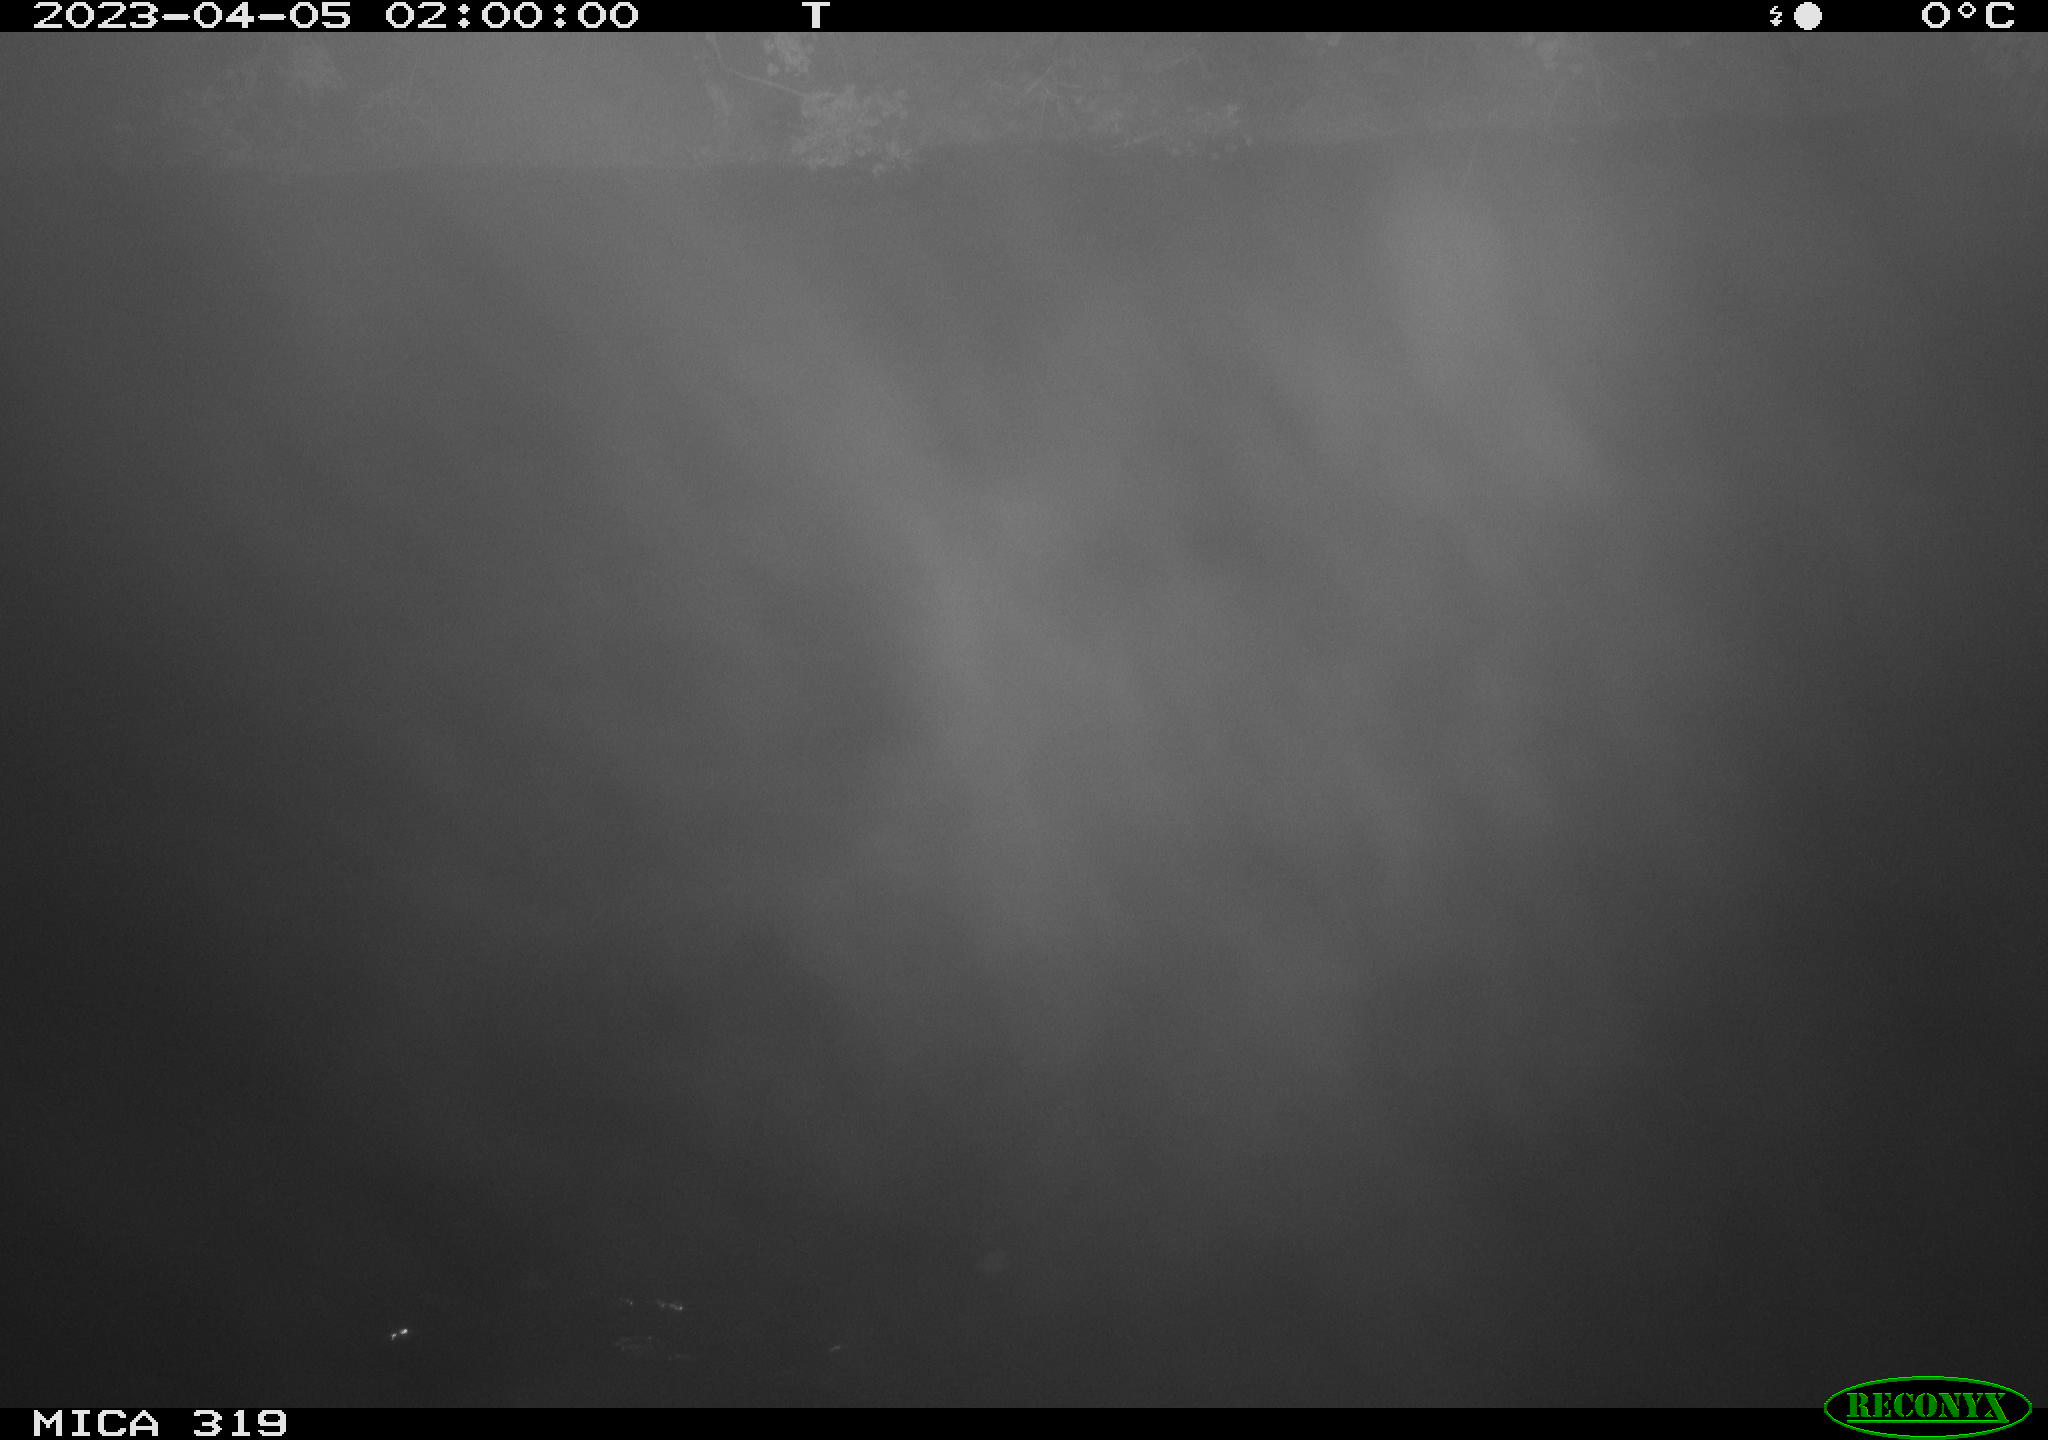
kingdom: Animalia
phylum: Chordata
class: Mammalia
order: Rodentia
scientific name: Rodentia
